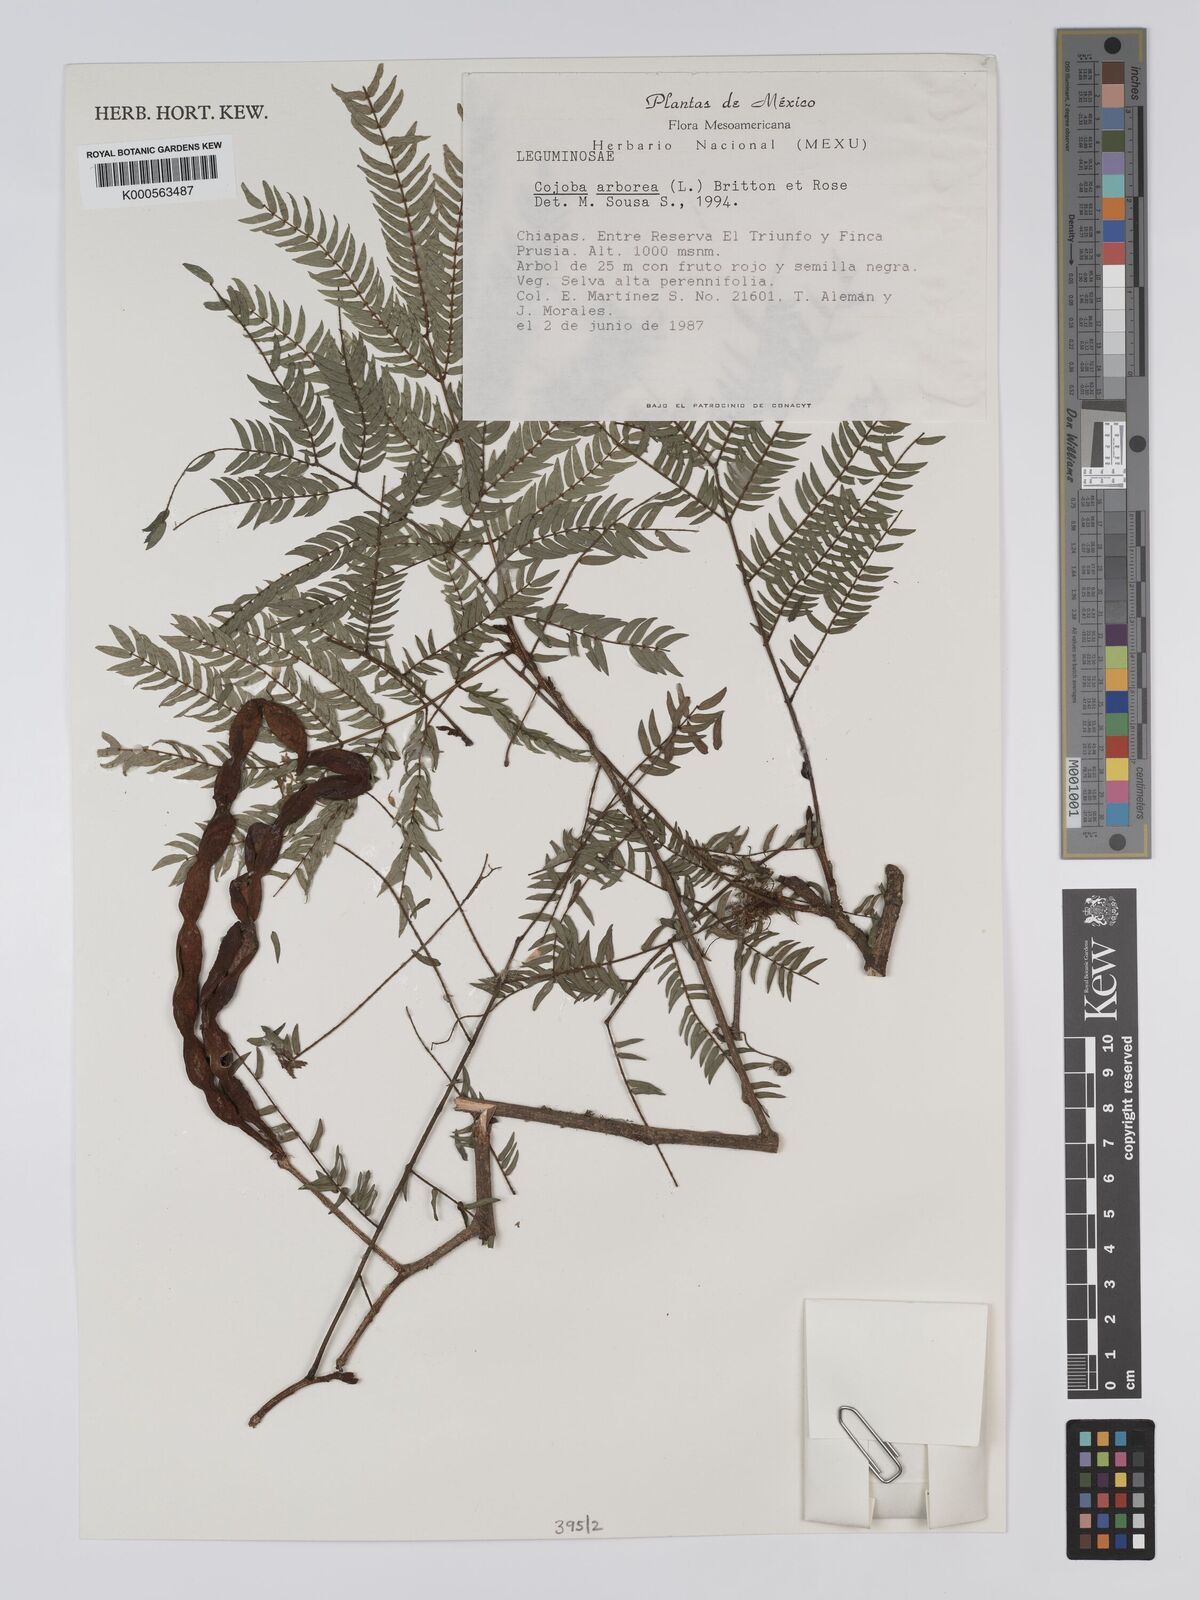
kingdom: Plantae
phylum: Tracheophyta
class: Magnoliopsida
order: Fabales
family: Fabaceae
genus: Cojoba
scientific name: Cojoba arborea
